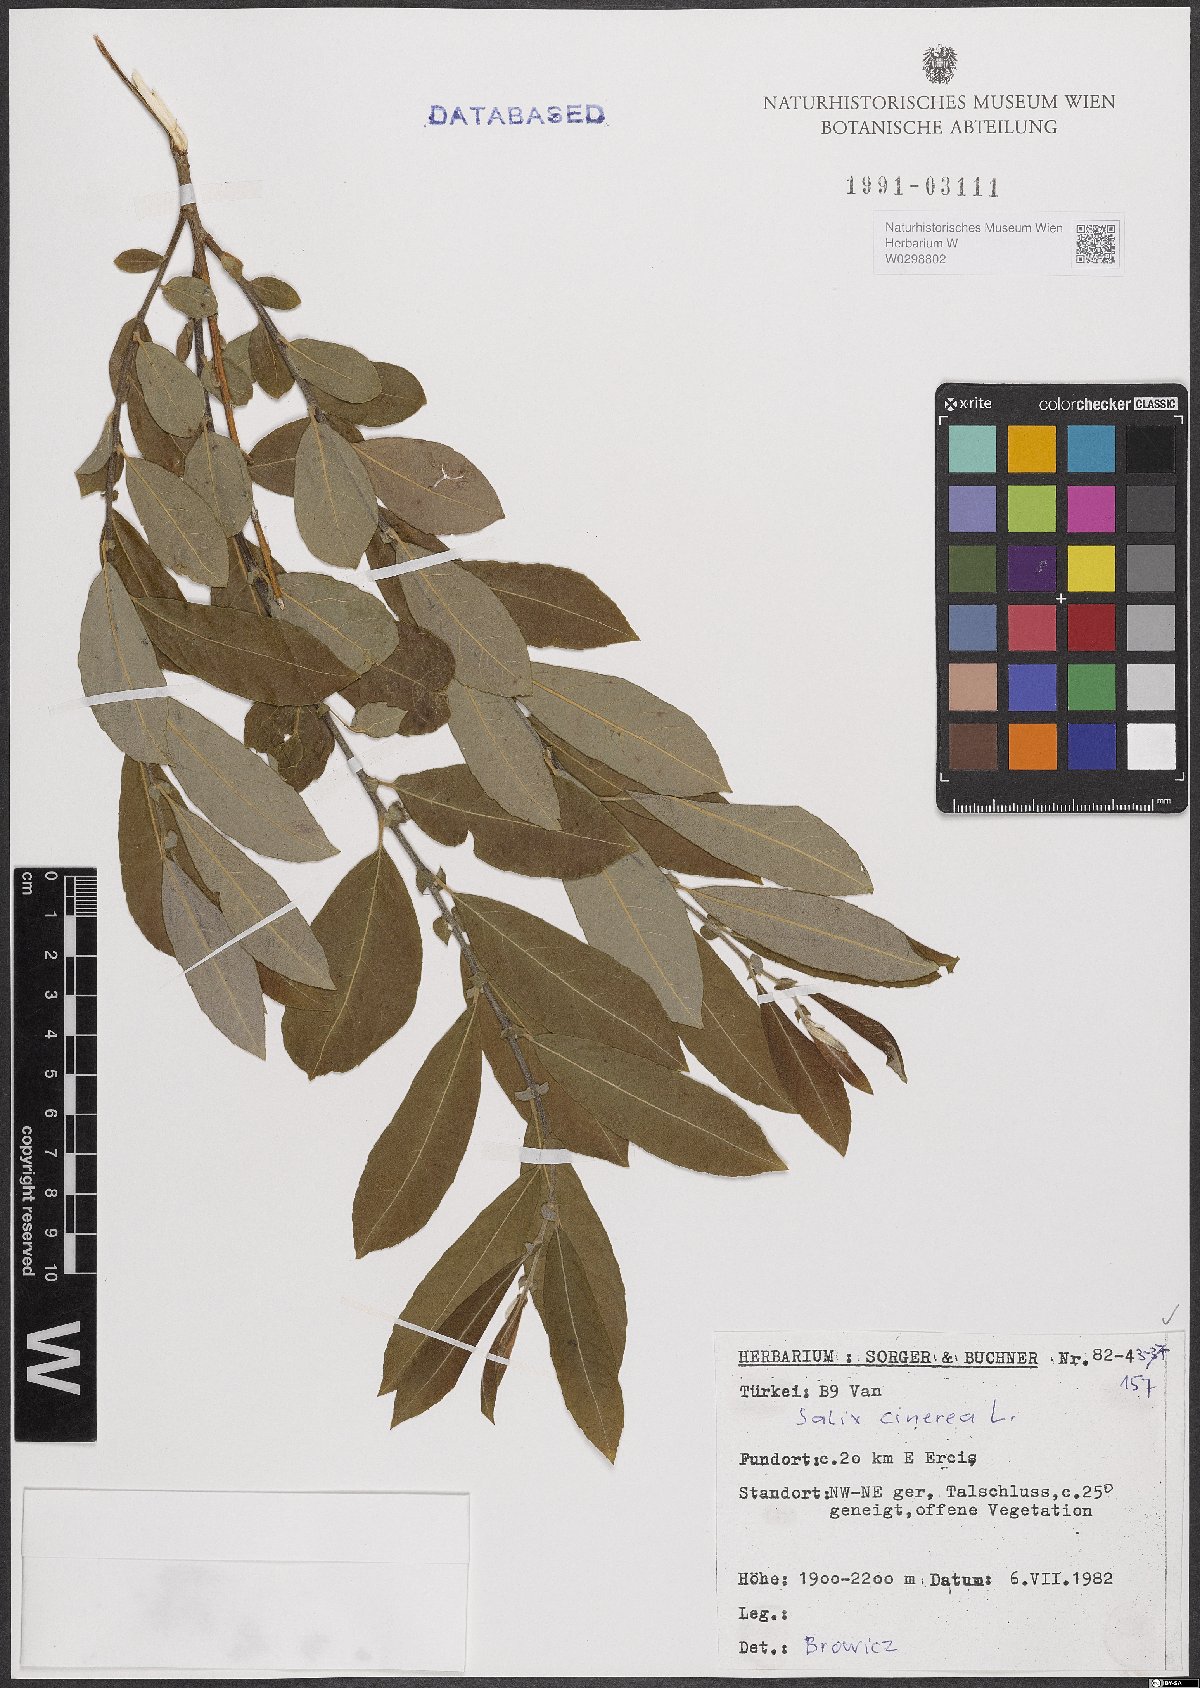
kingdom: Plantae
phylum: Tracheophyta
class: Magnoliopsida
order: Malpighiales
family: Salicaceae
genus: Salix
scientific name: Salix cinerea
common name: Common sallow
